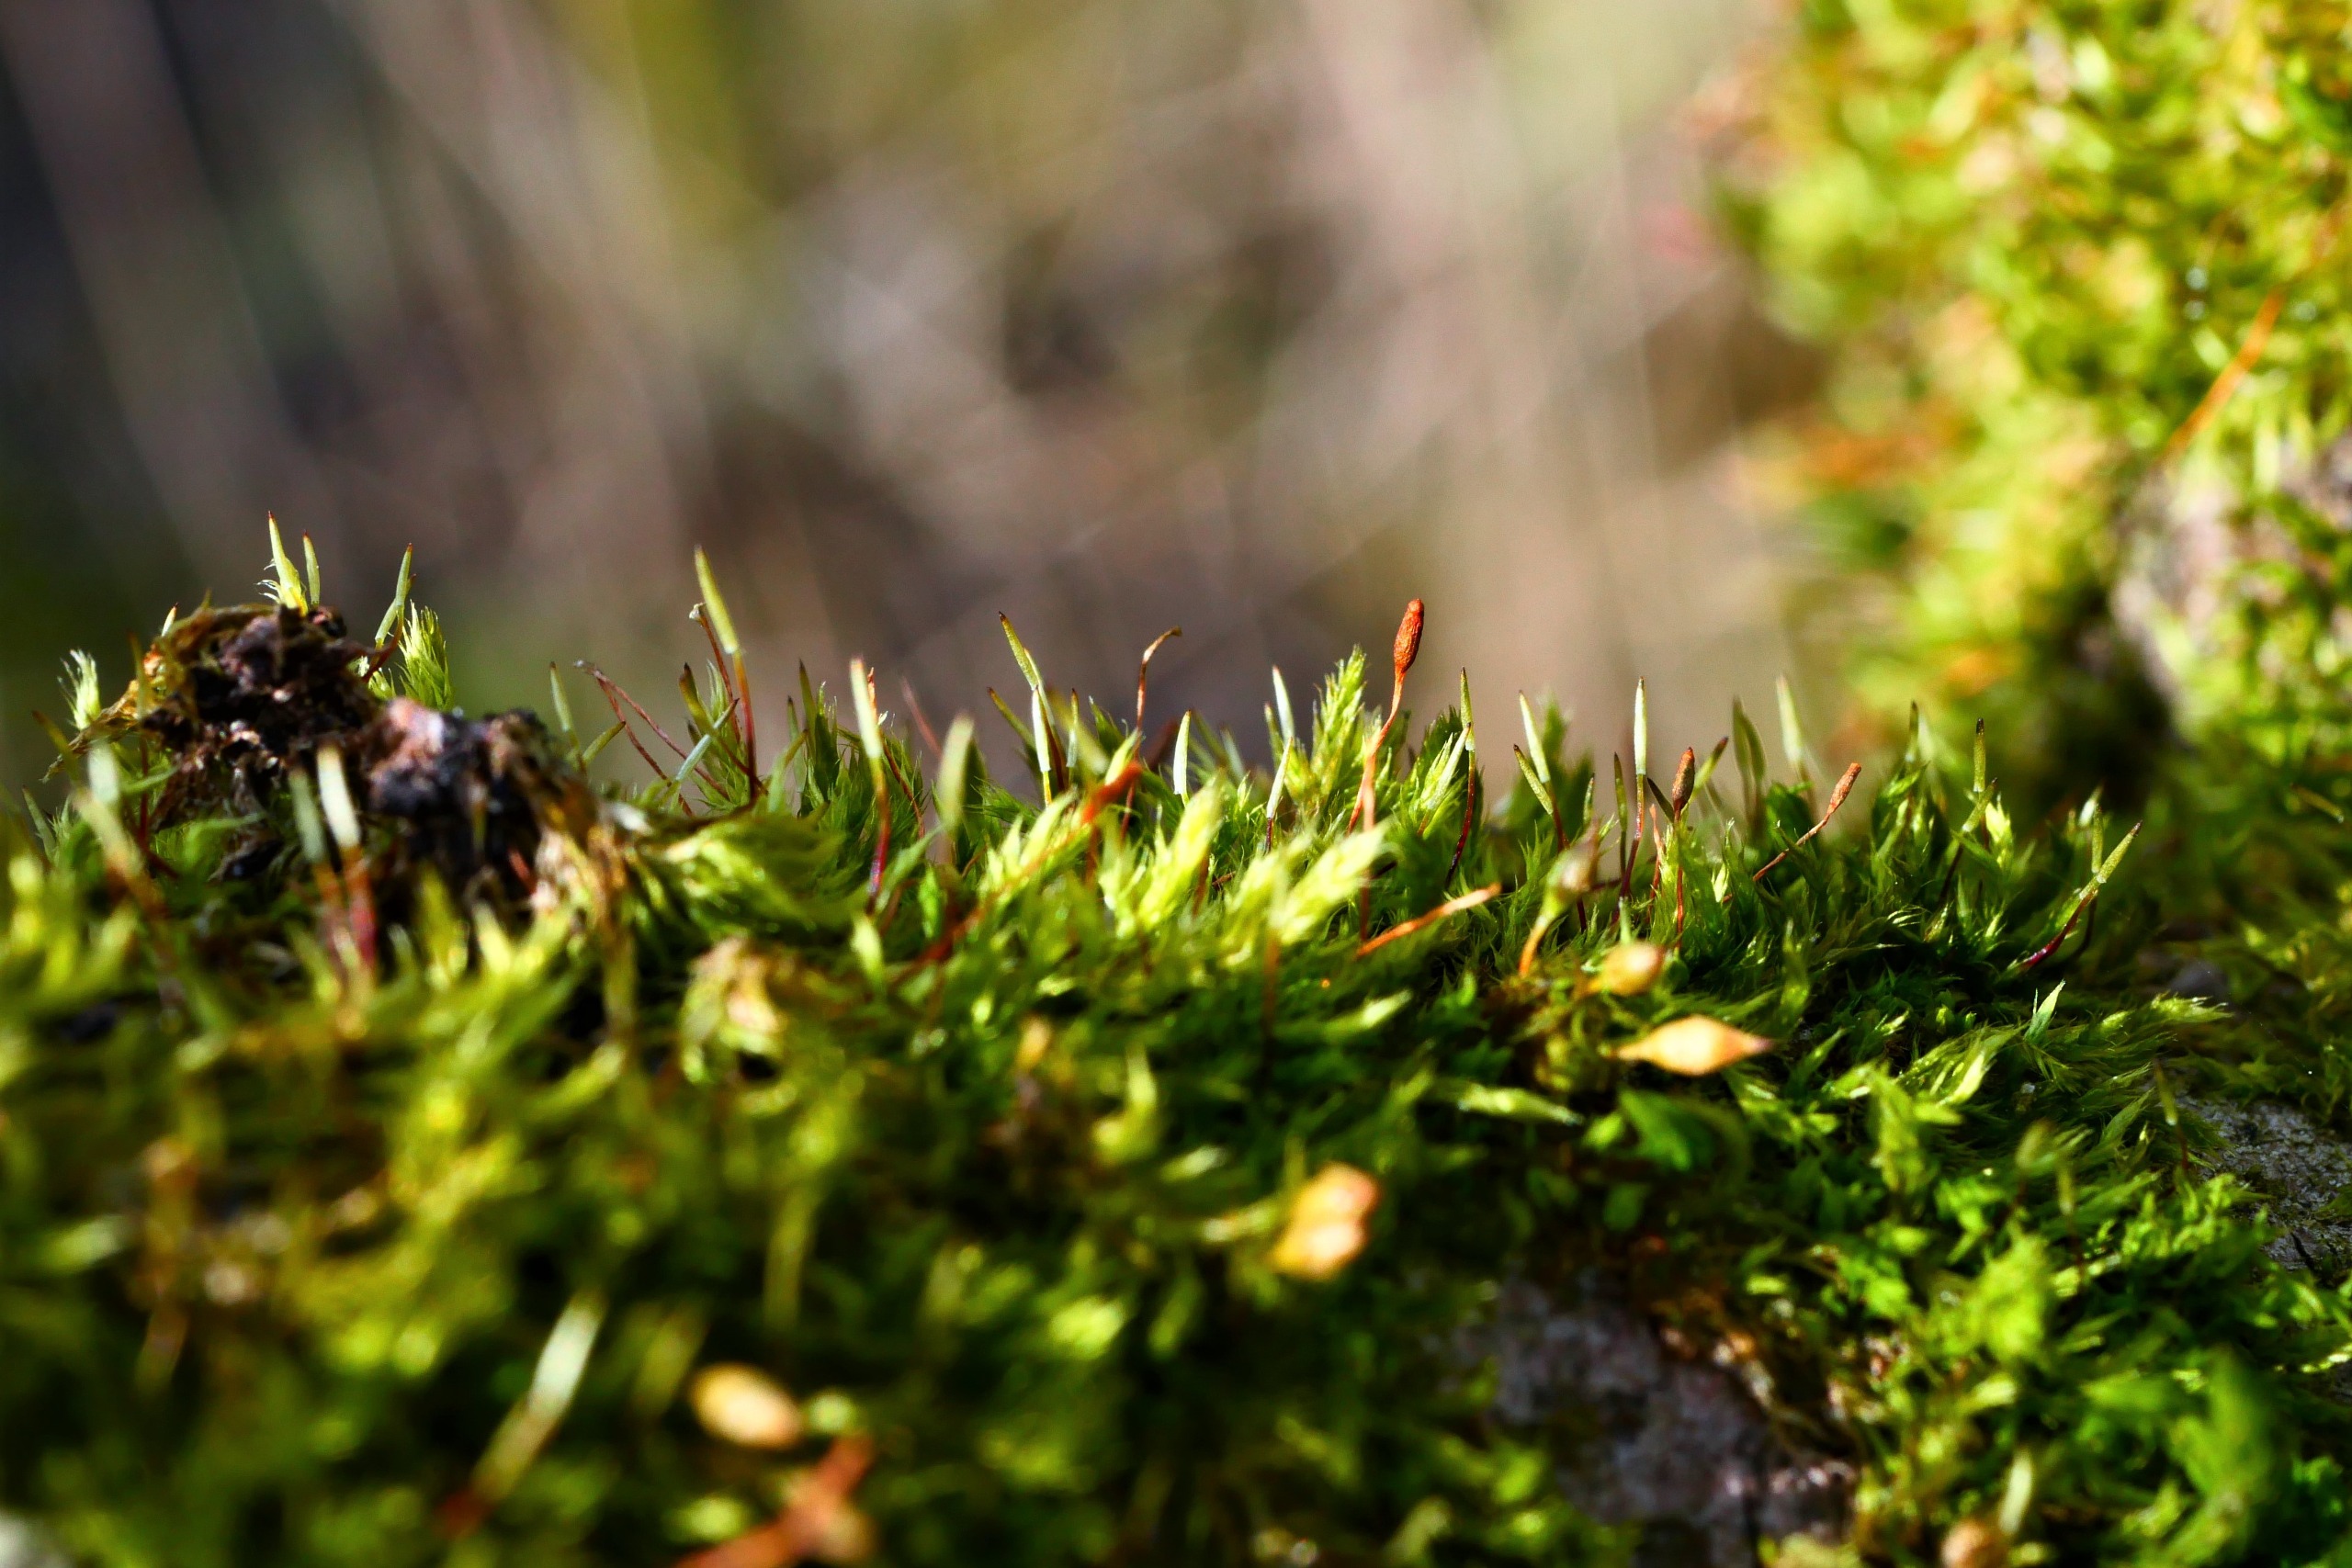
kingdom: Plantae
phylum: Bryophyta
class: Bryopsida
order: Hypnales
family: Pylaisiaceae
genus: Pylaisia
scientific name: Pylaisia polyantha
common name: Mangefrugtet aspemos
